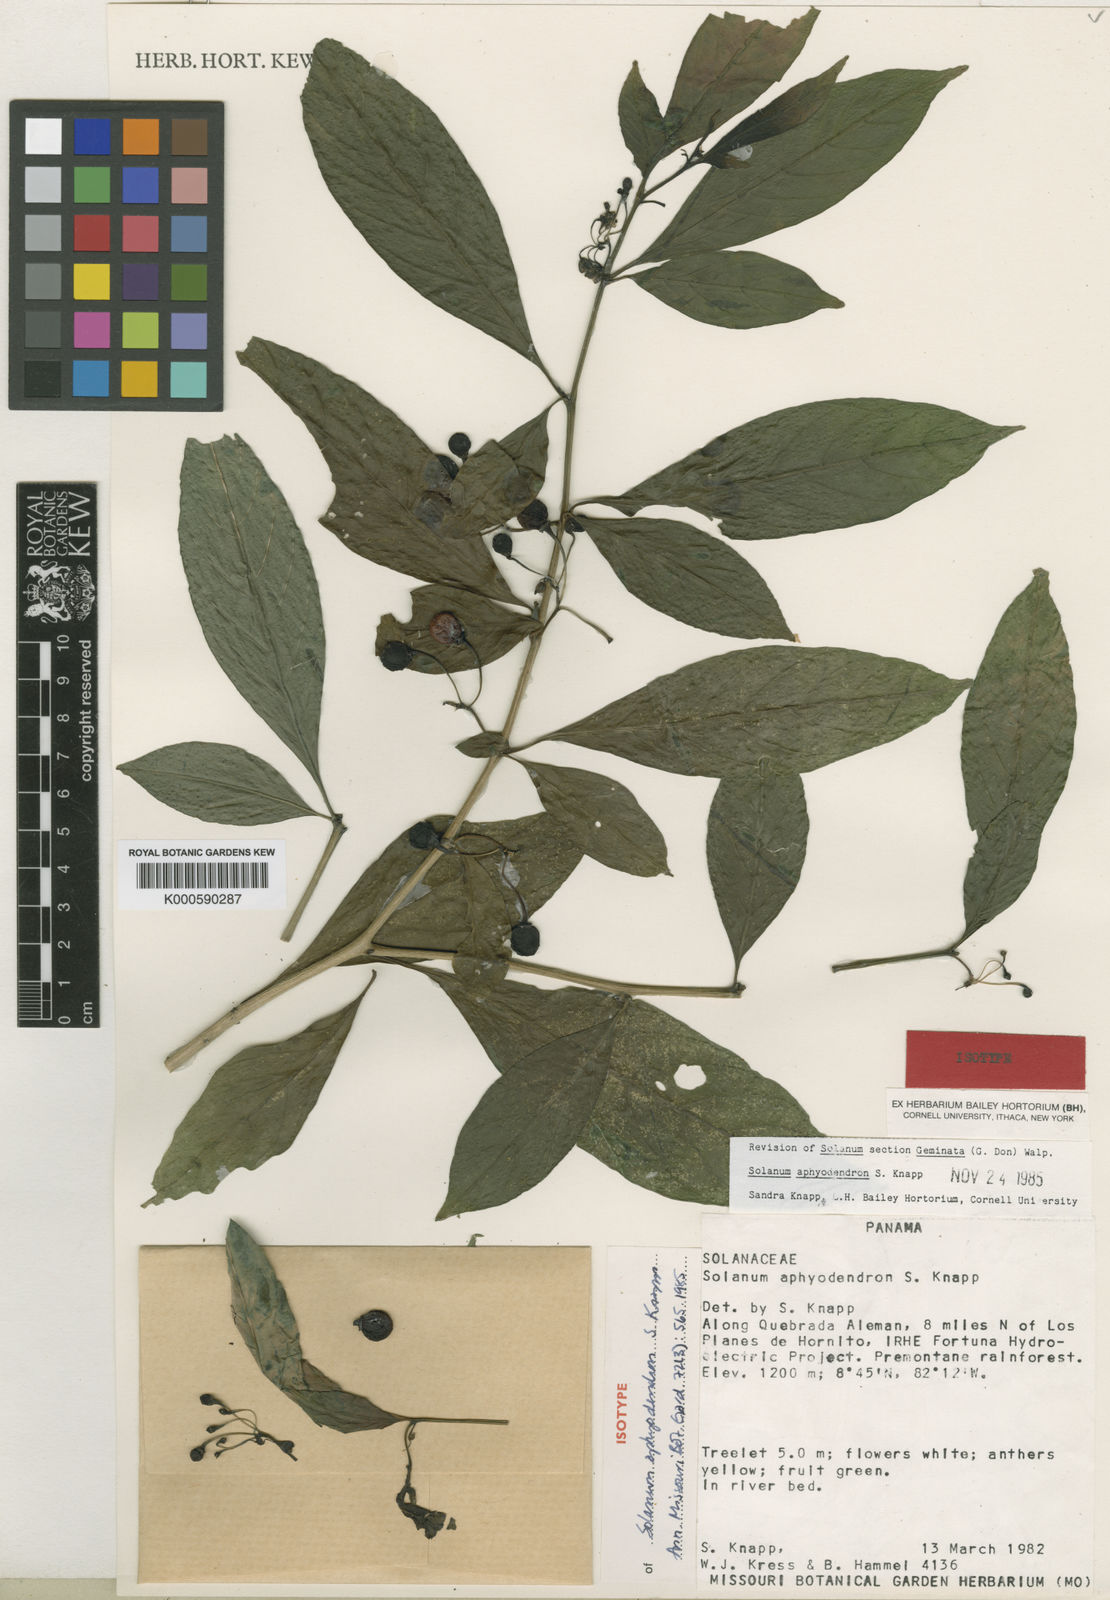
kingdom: Plantae
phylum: Tracheophyta
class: Magnoliopsida
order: Solanales
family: Solanaceae
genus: Solanum
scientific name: Solanum aphyodendron
